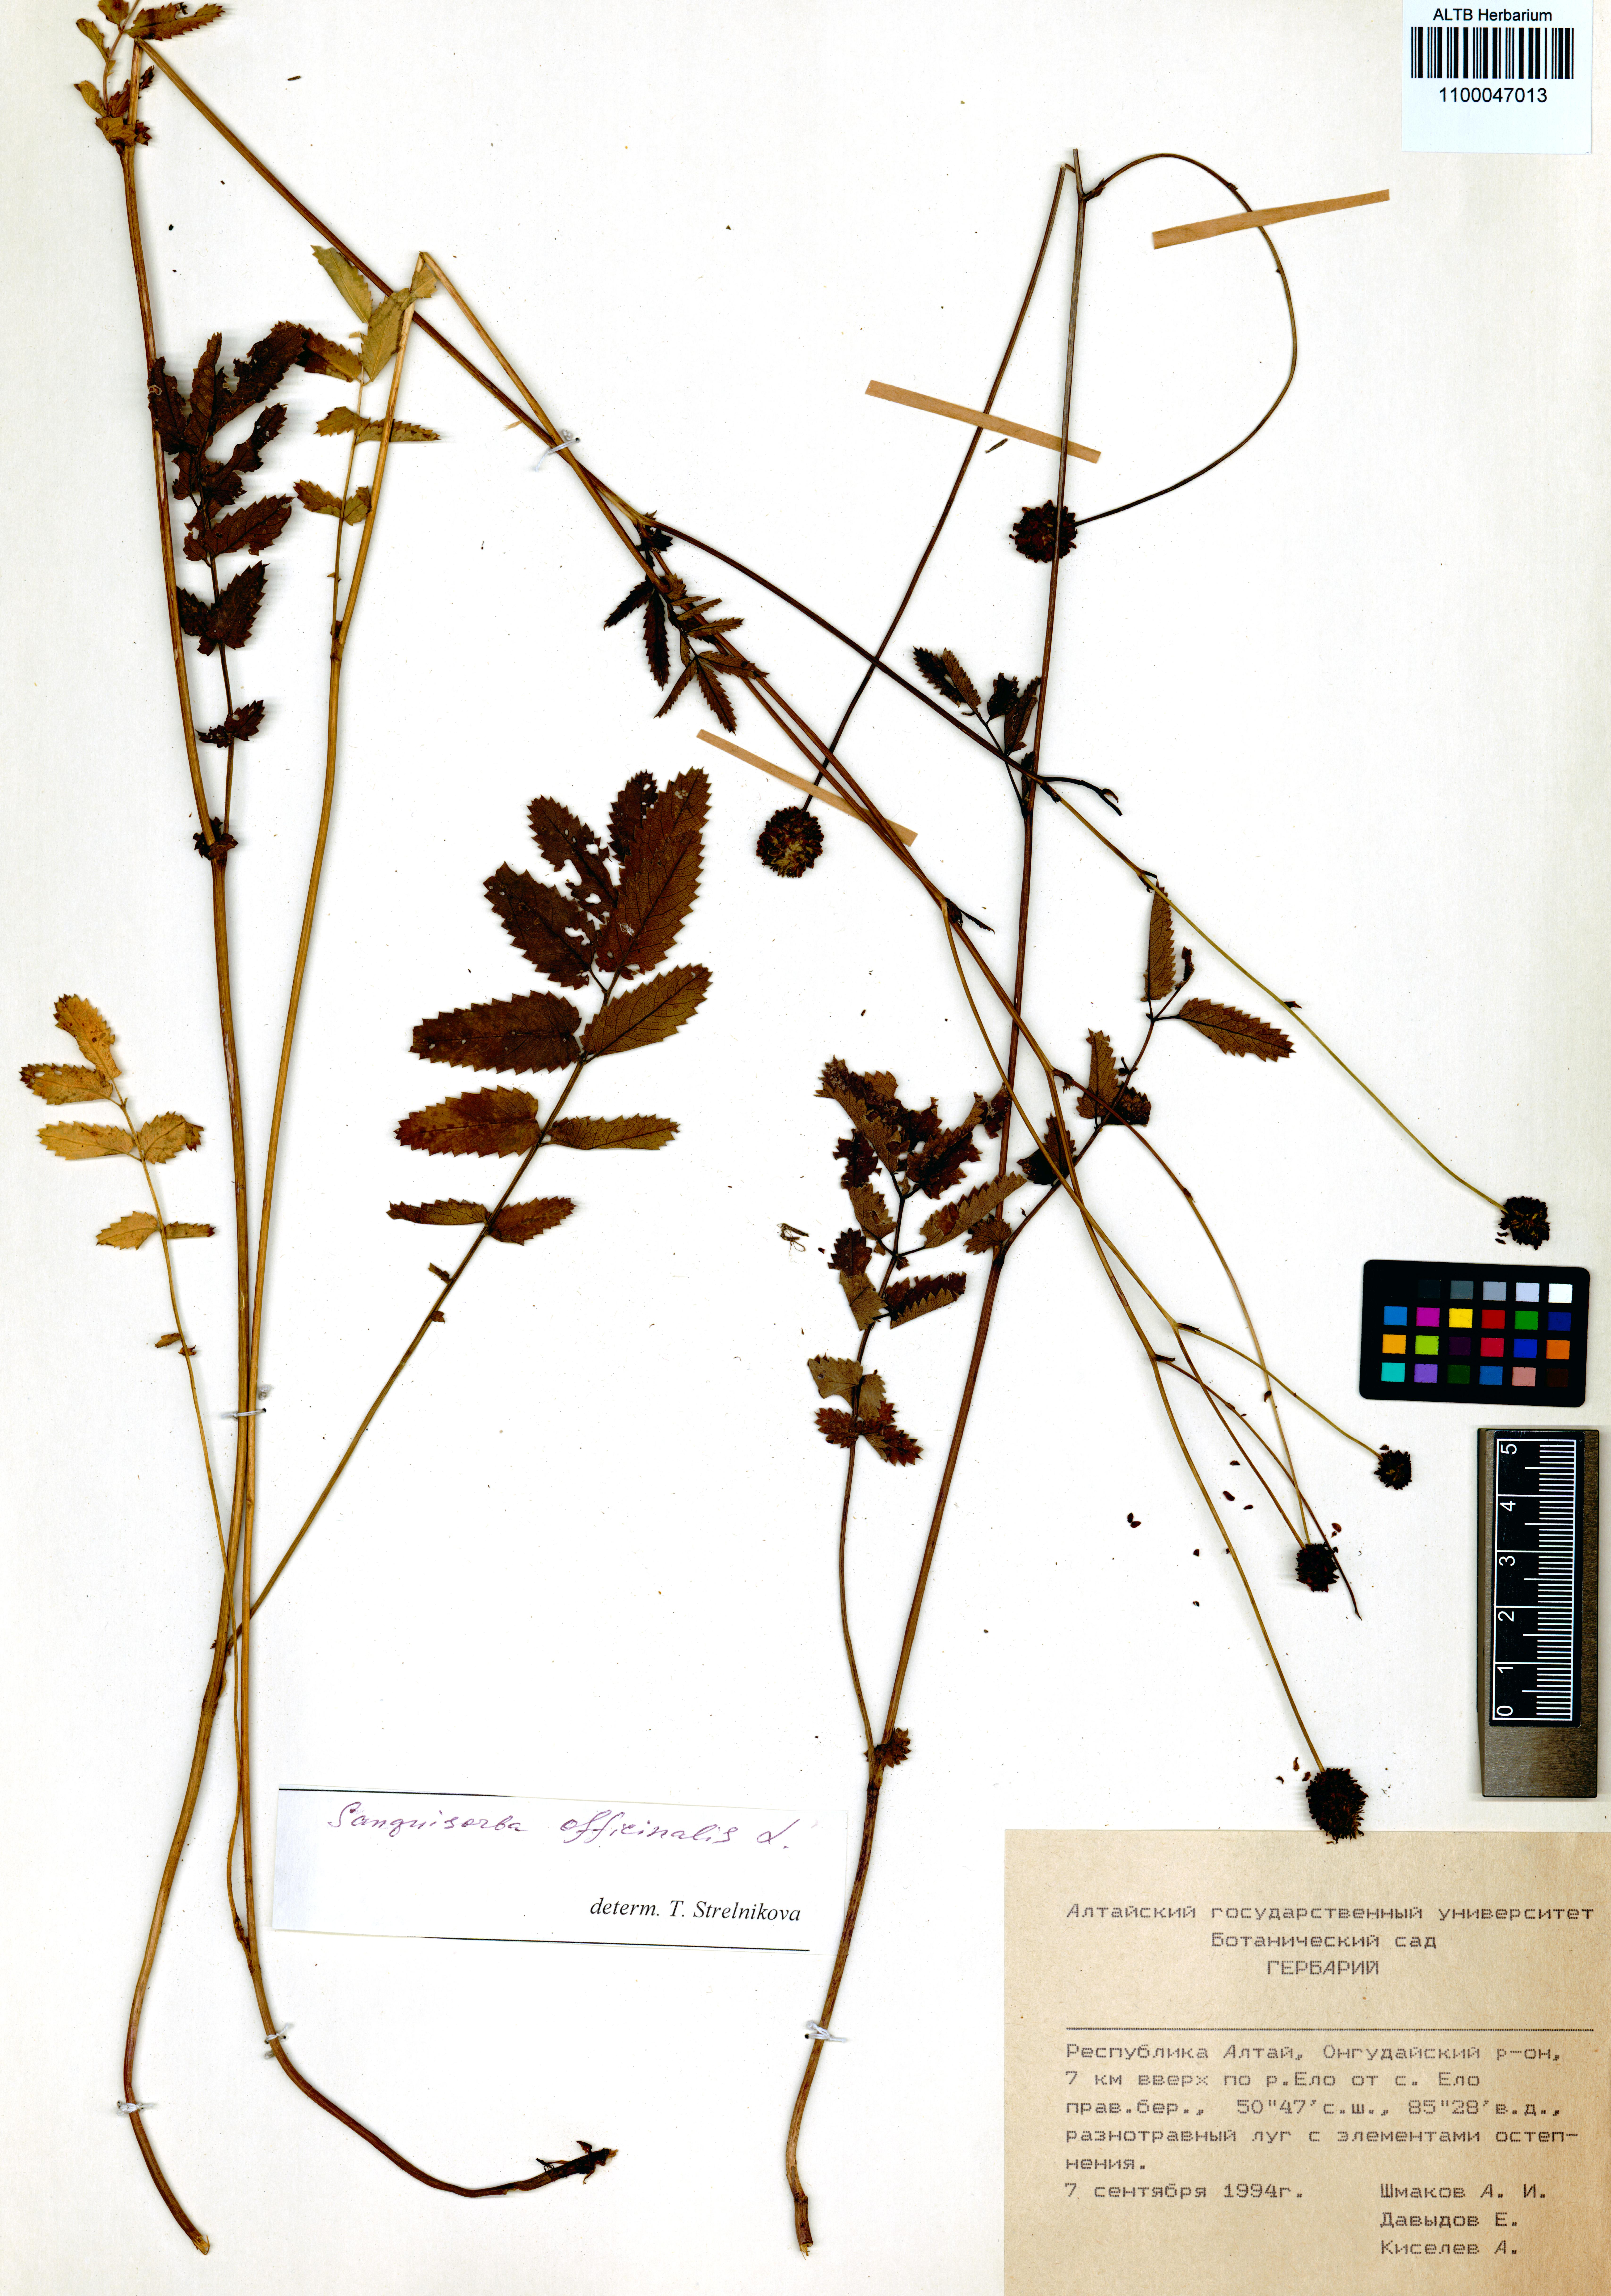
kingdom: Plantae
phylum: Tracheophyta
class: Magnoliopsida
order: Rosales
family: Rosaceae
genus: Sanguisorba
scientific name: Sanguisorba officinalis
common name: Great burnet
